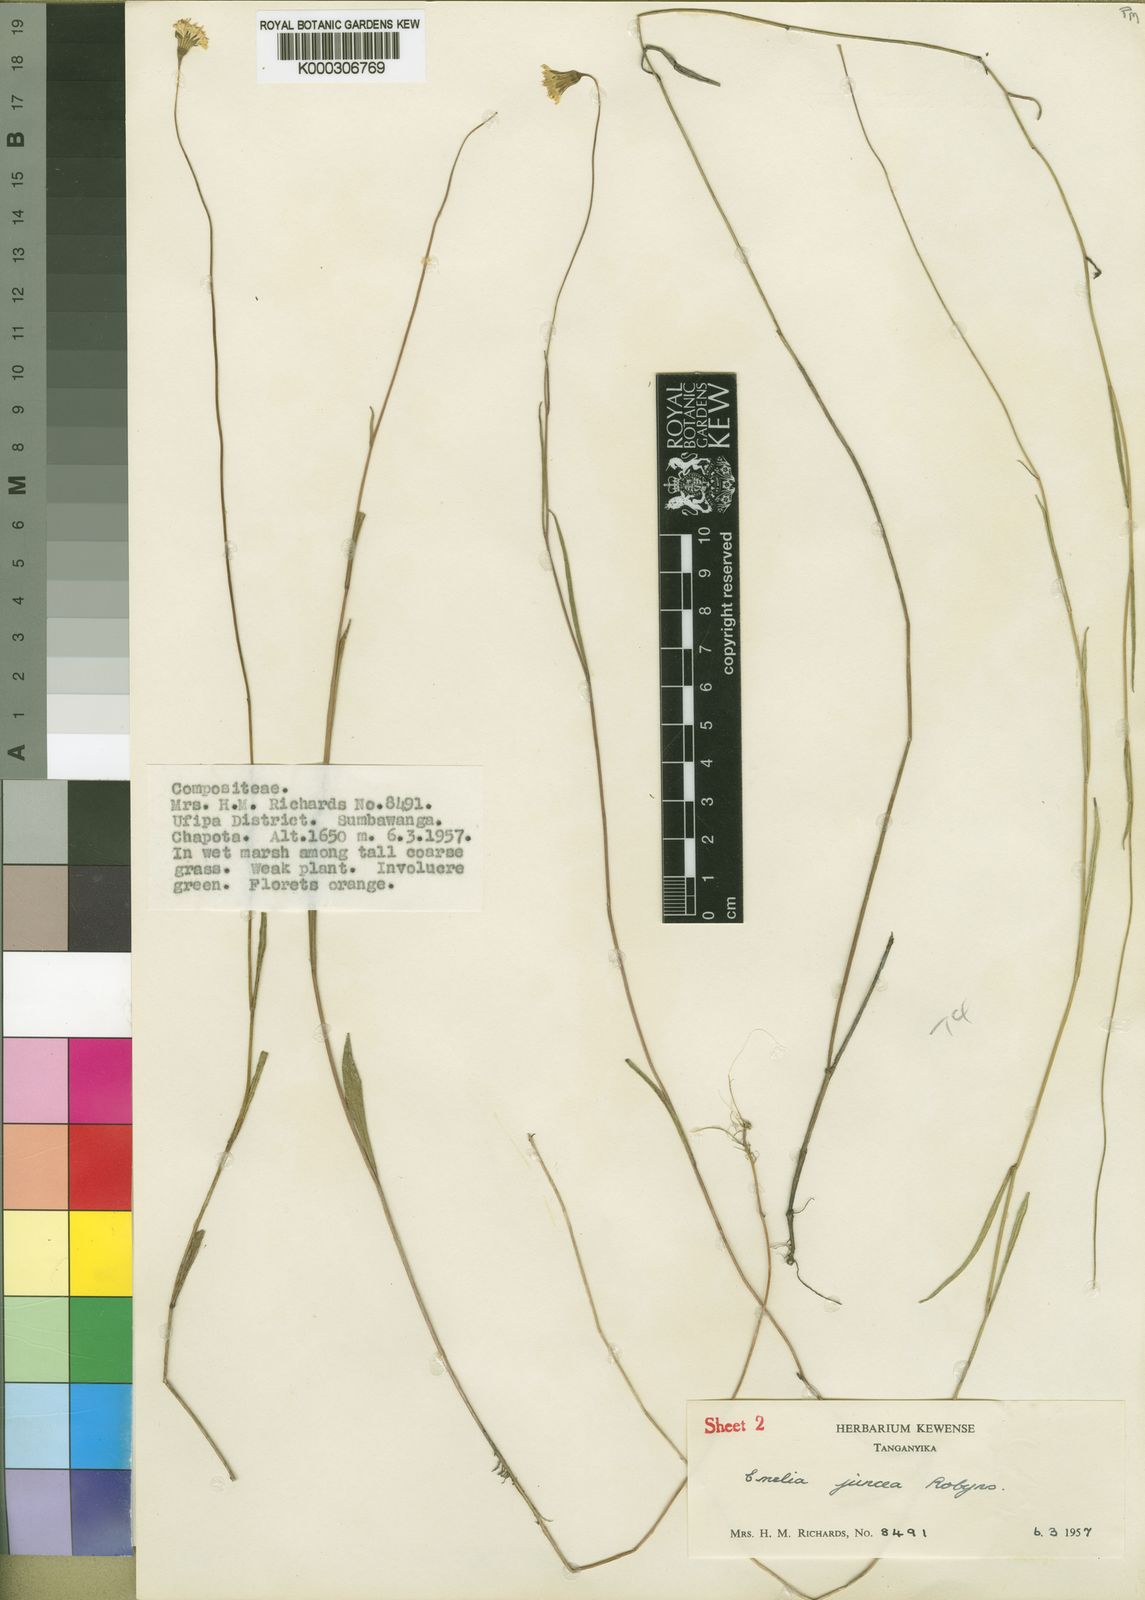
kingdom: Plantae
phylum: Tracheophyta
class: Magnoliopsida
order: Asterales
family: Asteraceae
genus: Emilia
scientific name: Emilia tenuis
